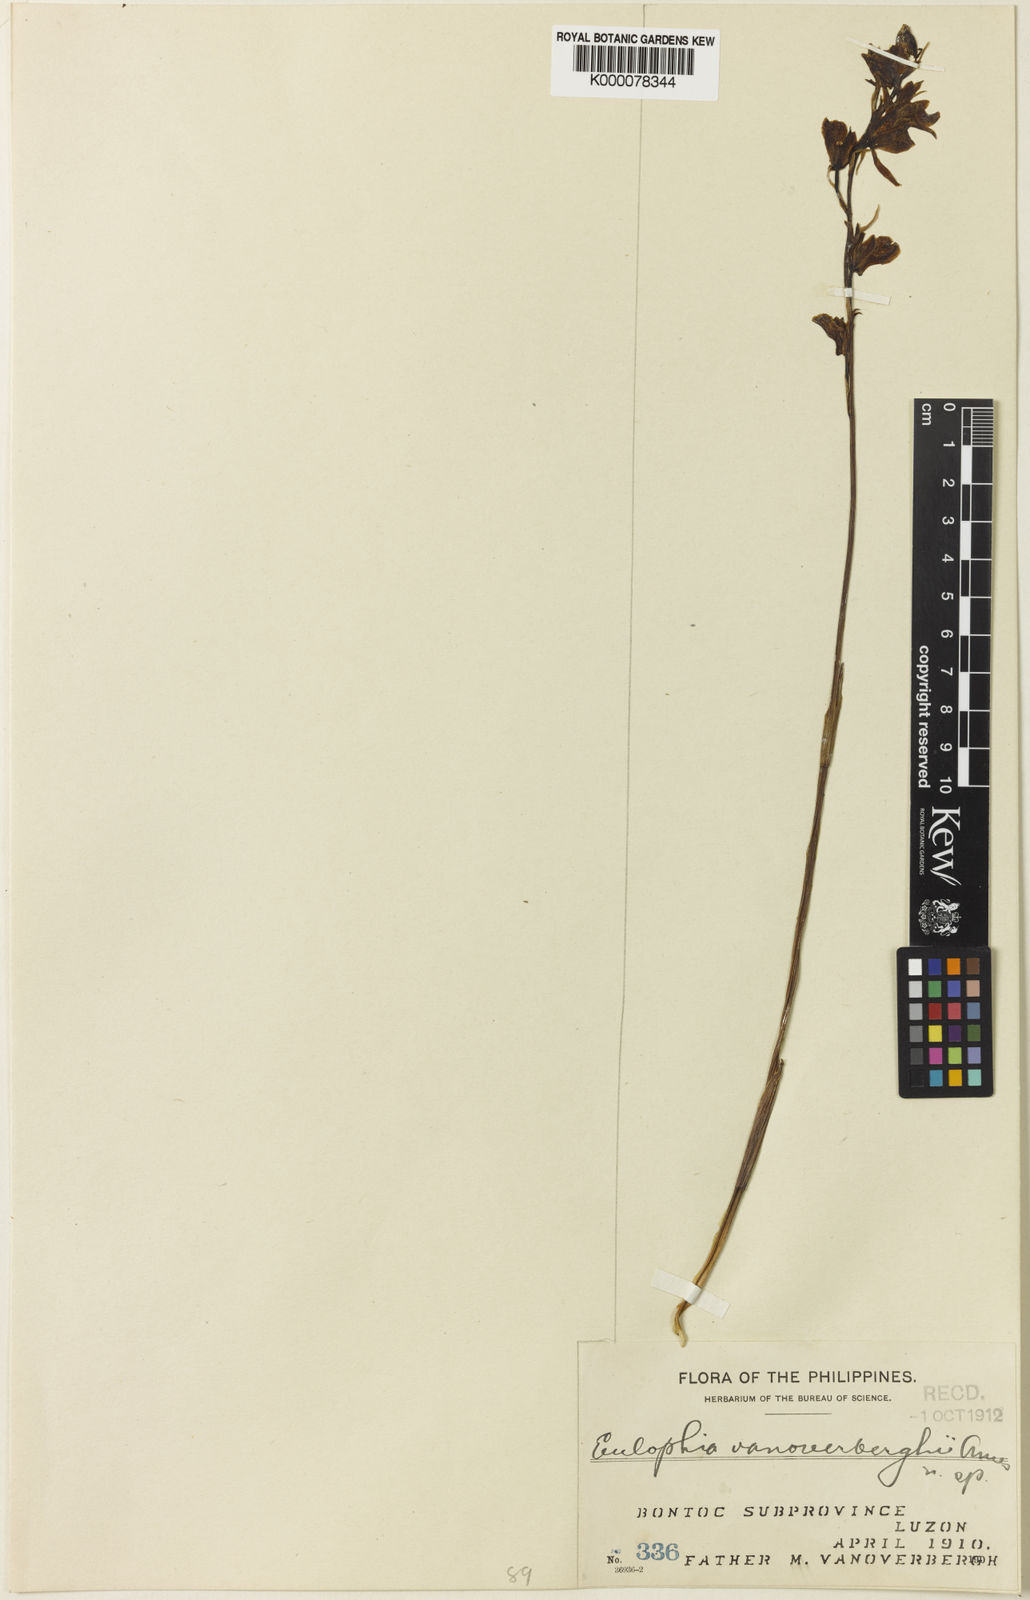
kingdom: Plantae
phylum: Tracheophyta
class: Liliopsida
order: Asparagales
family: Orchidaceae
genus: Eulophia
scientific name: Eulophia bicallosa
